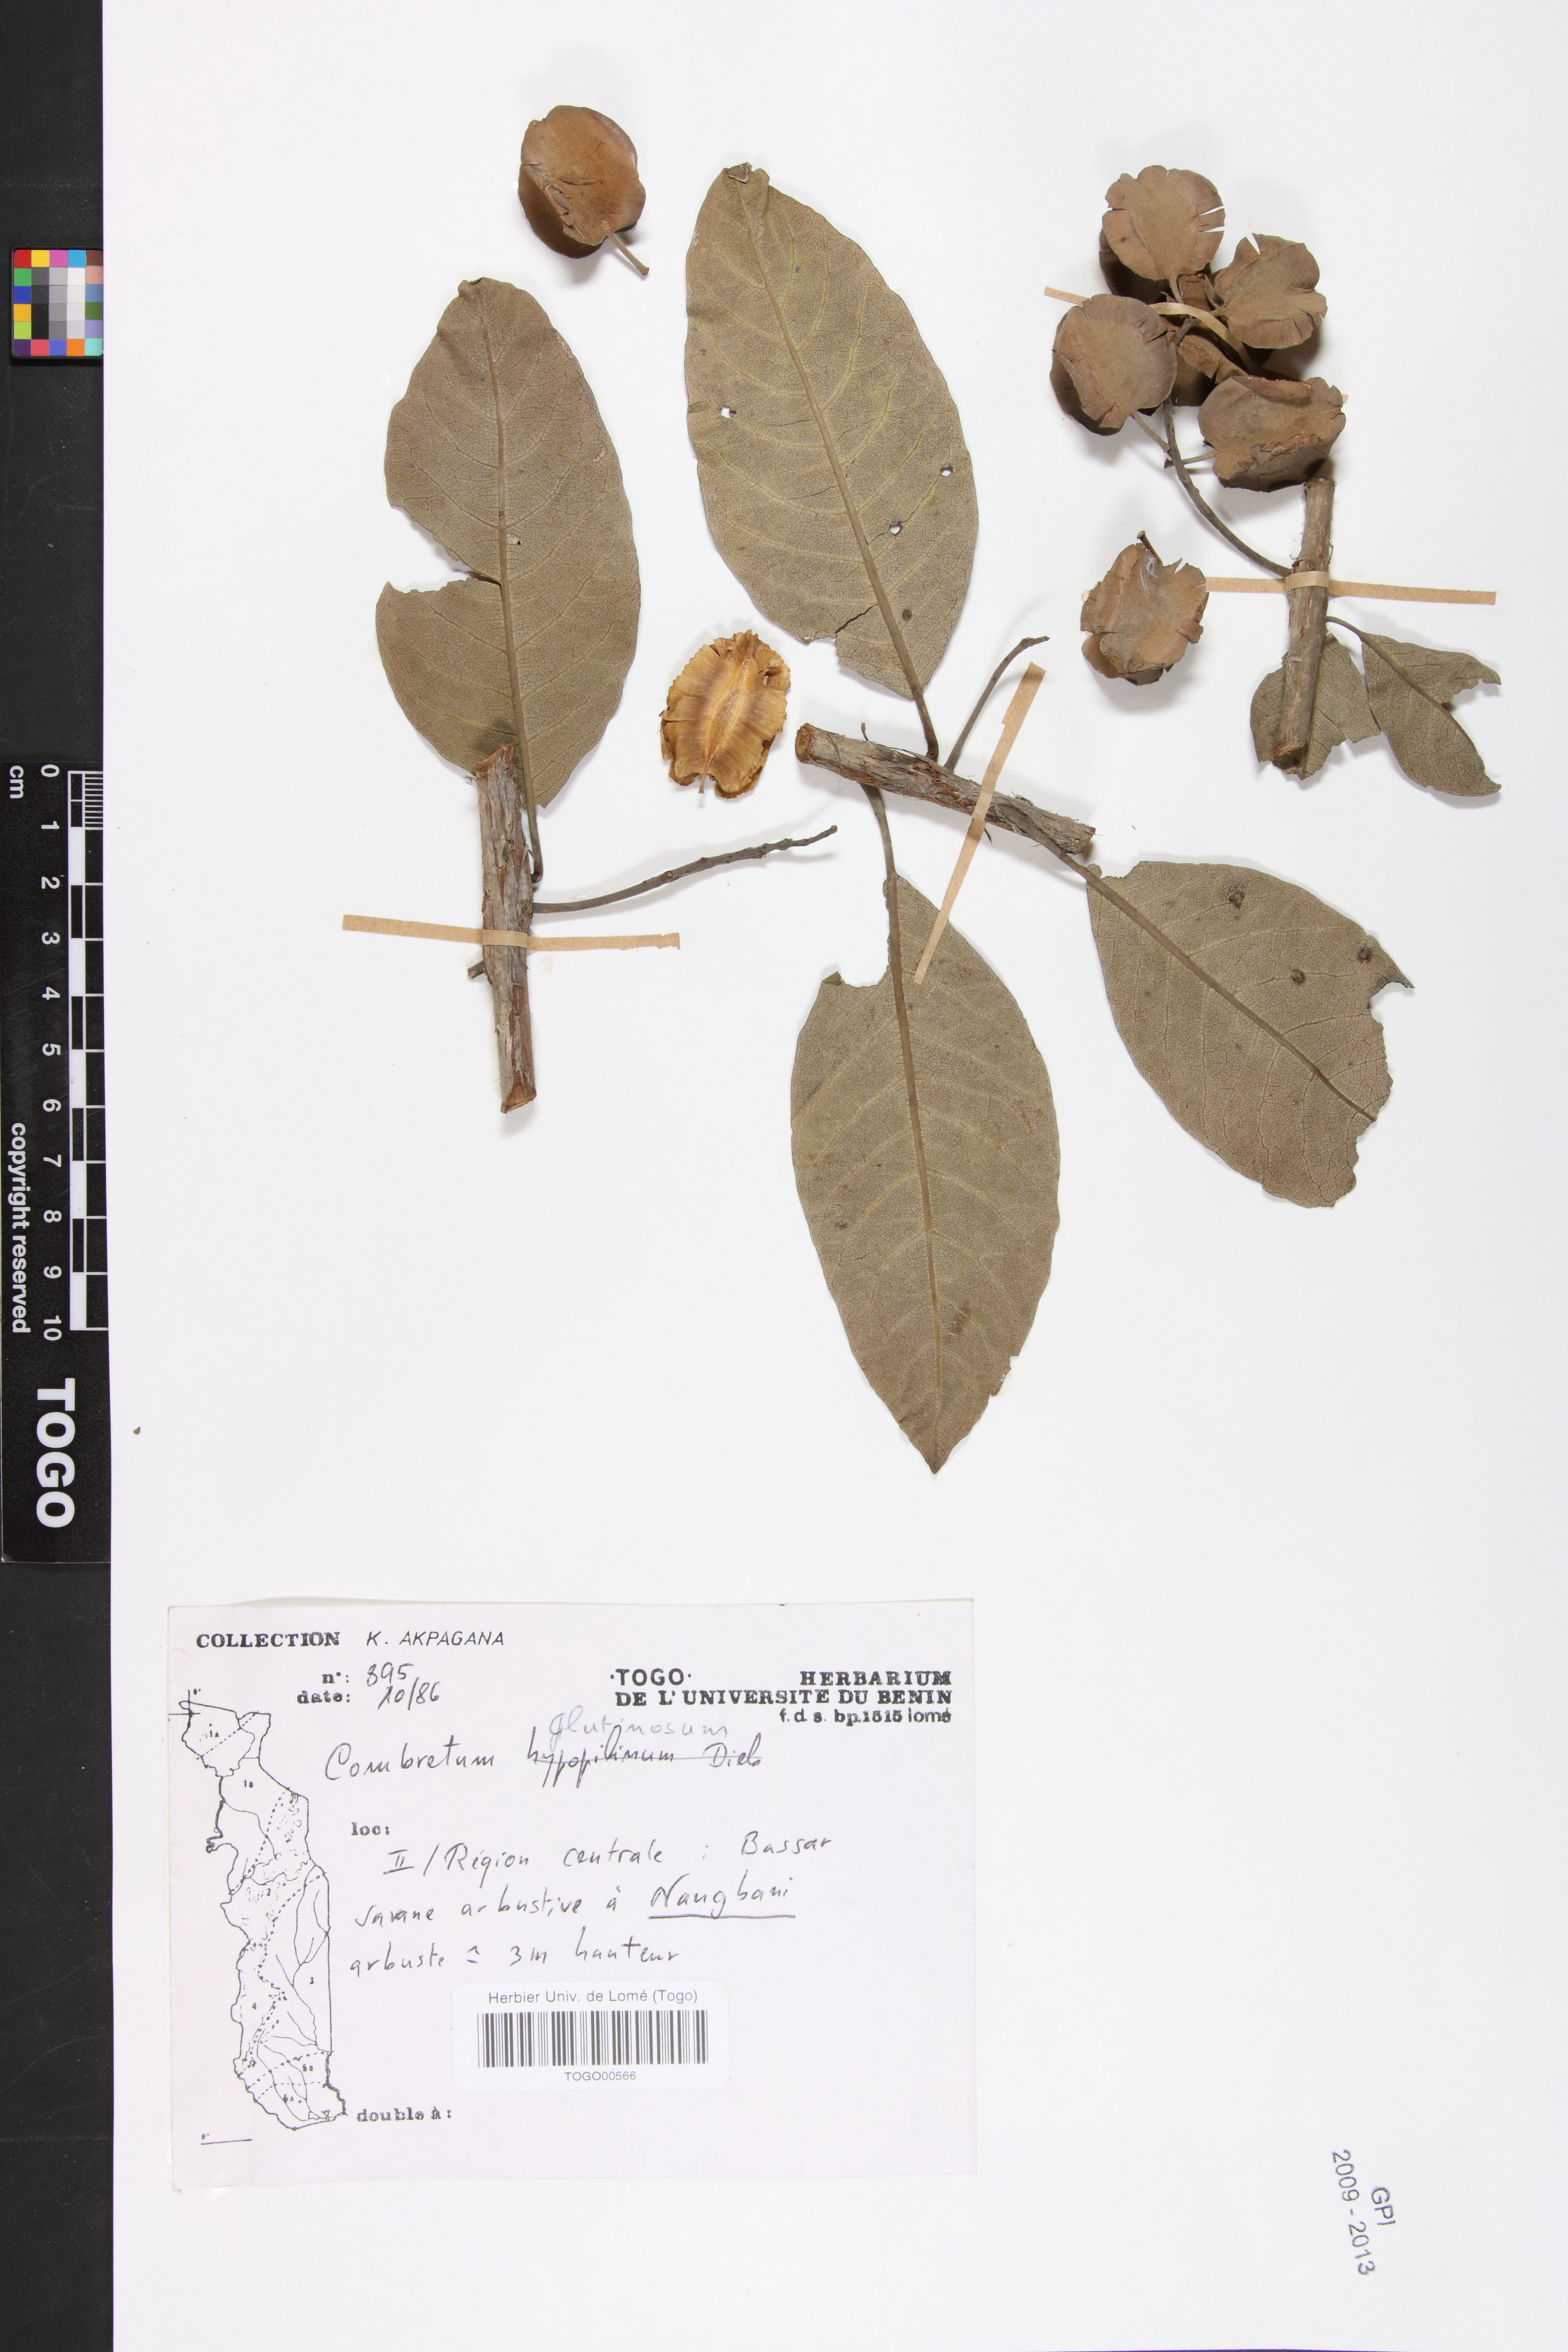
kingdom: Plantae
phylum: Tracheophyta
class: Magnoliopsida
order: Myrtales
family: Combretaceae
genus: Combretum
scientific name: Combretum glutinosum
